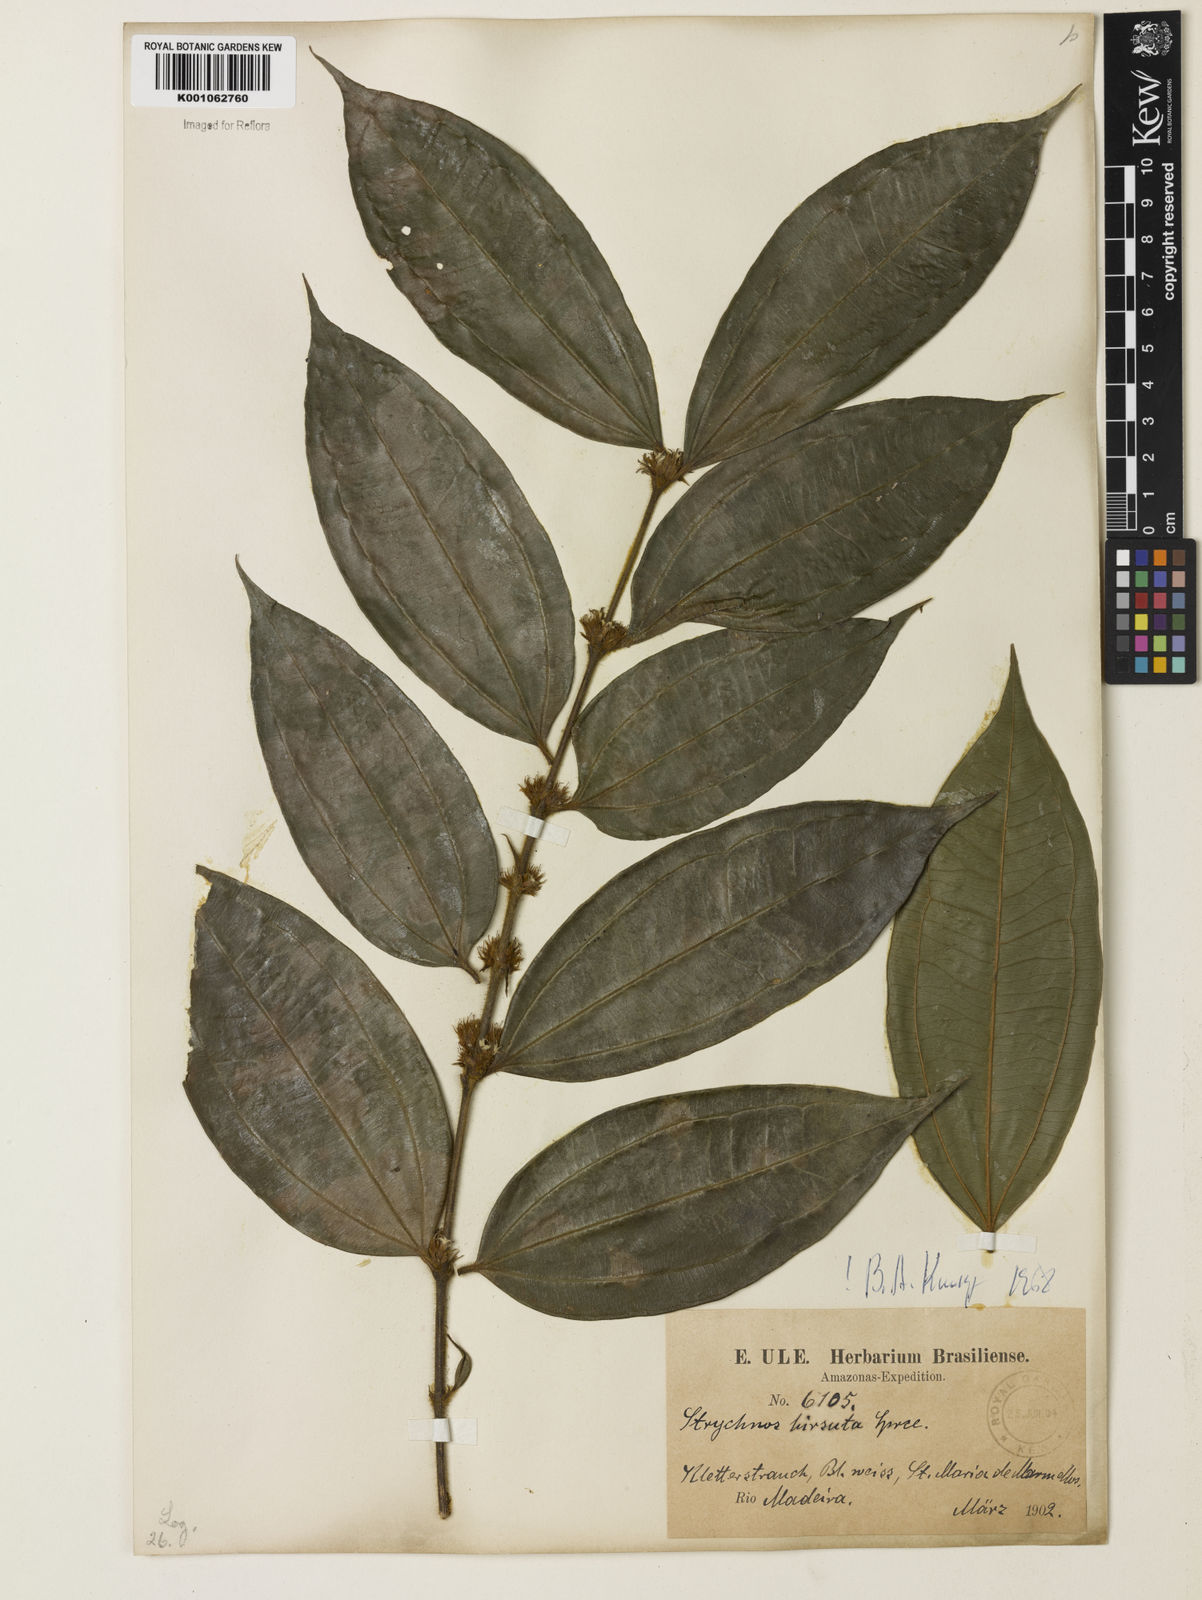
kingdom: Plantae
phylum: Tracheophyta
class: Magnoliopsida
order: Gentianales
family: Loganiaceae
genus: Strychnos
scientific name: Strychnos hirsuta
